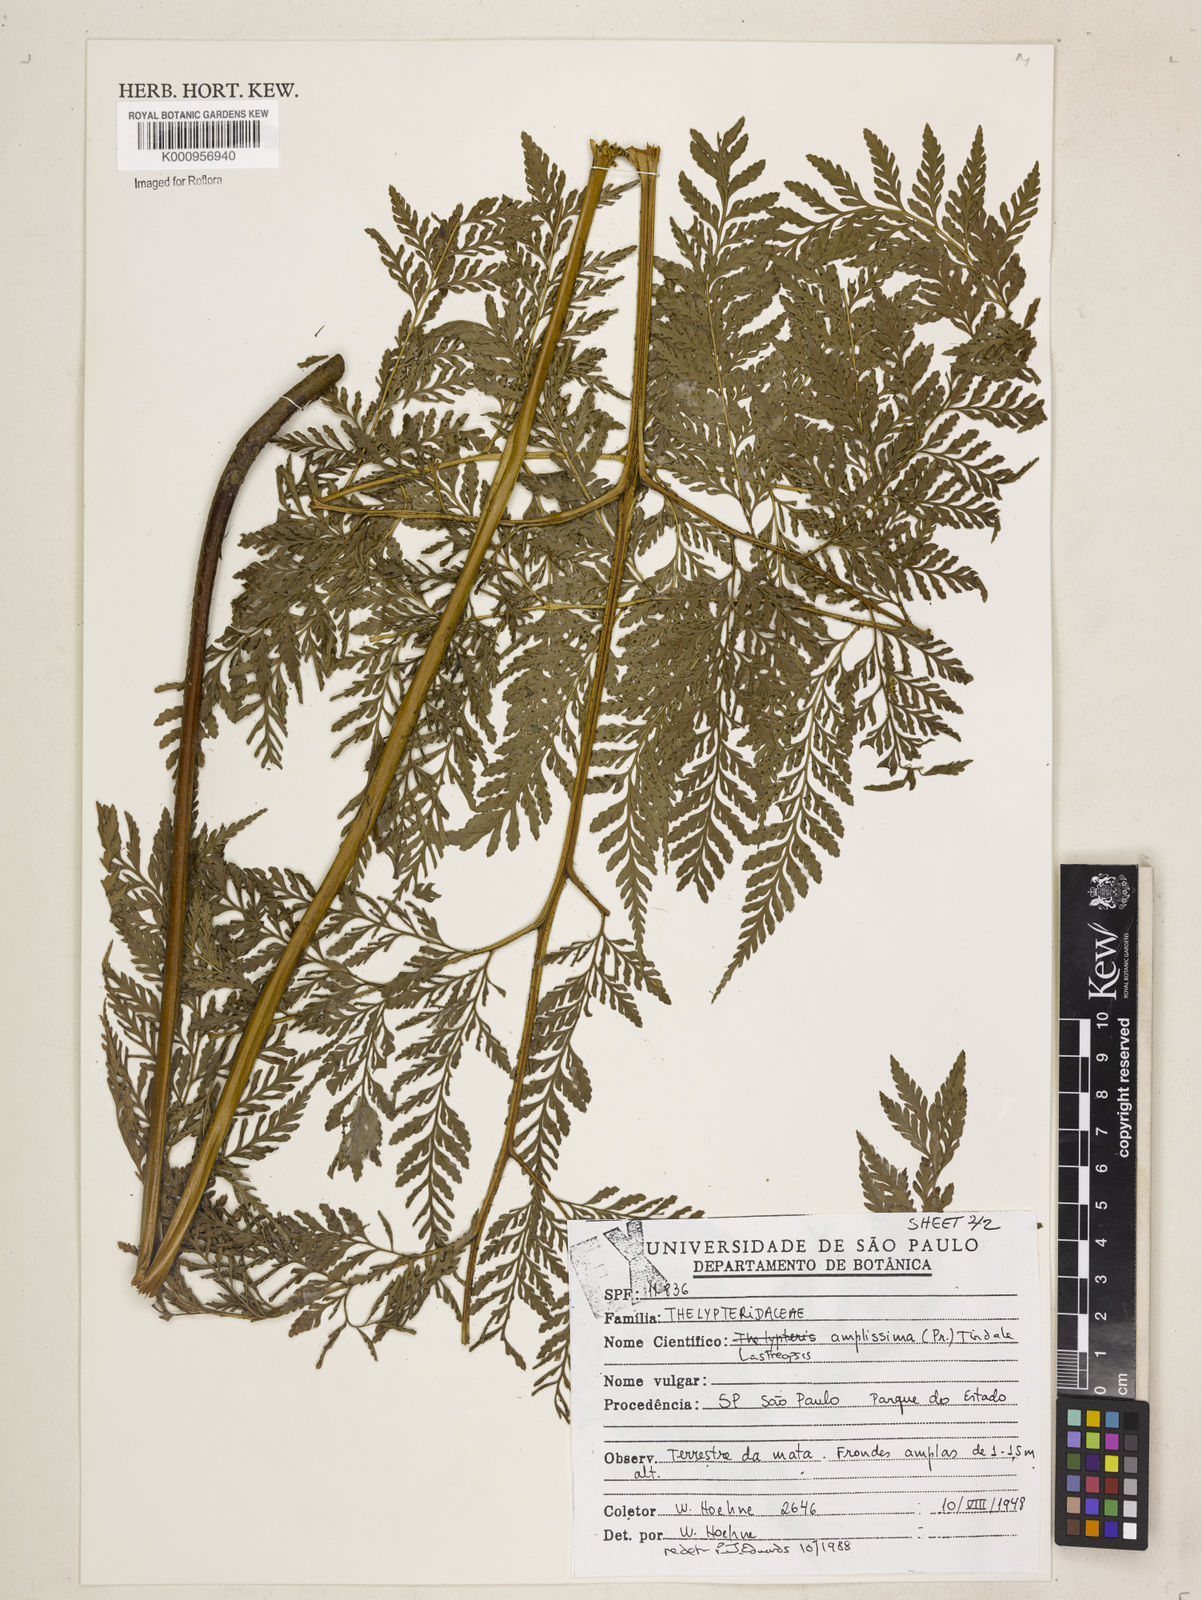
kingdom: Plantae
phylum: Tracheophyta
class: Polypodiopsida
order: Polypodiales
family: Dryopteridaceae
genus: Lastreopsis
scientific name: Lastreopsis amplissima
